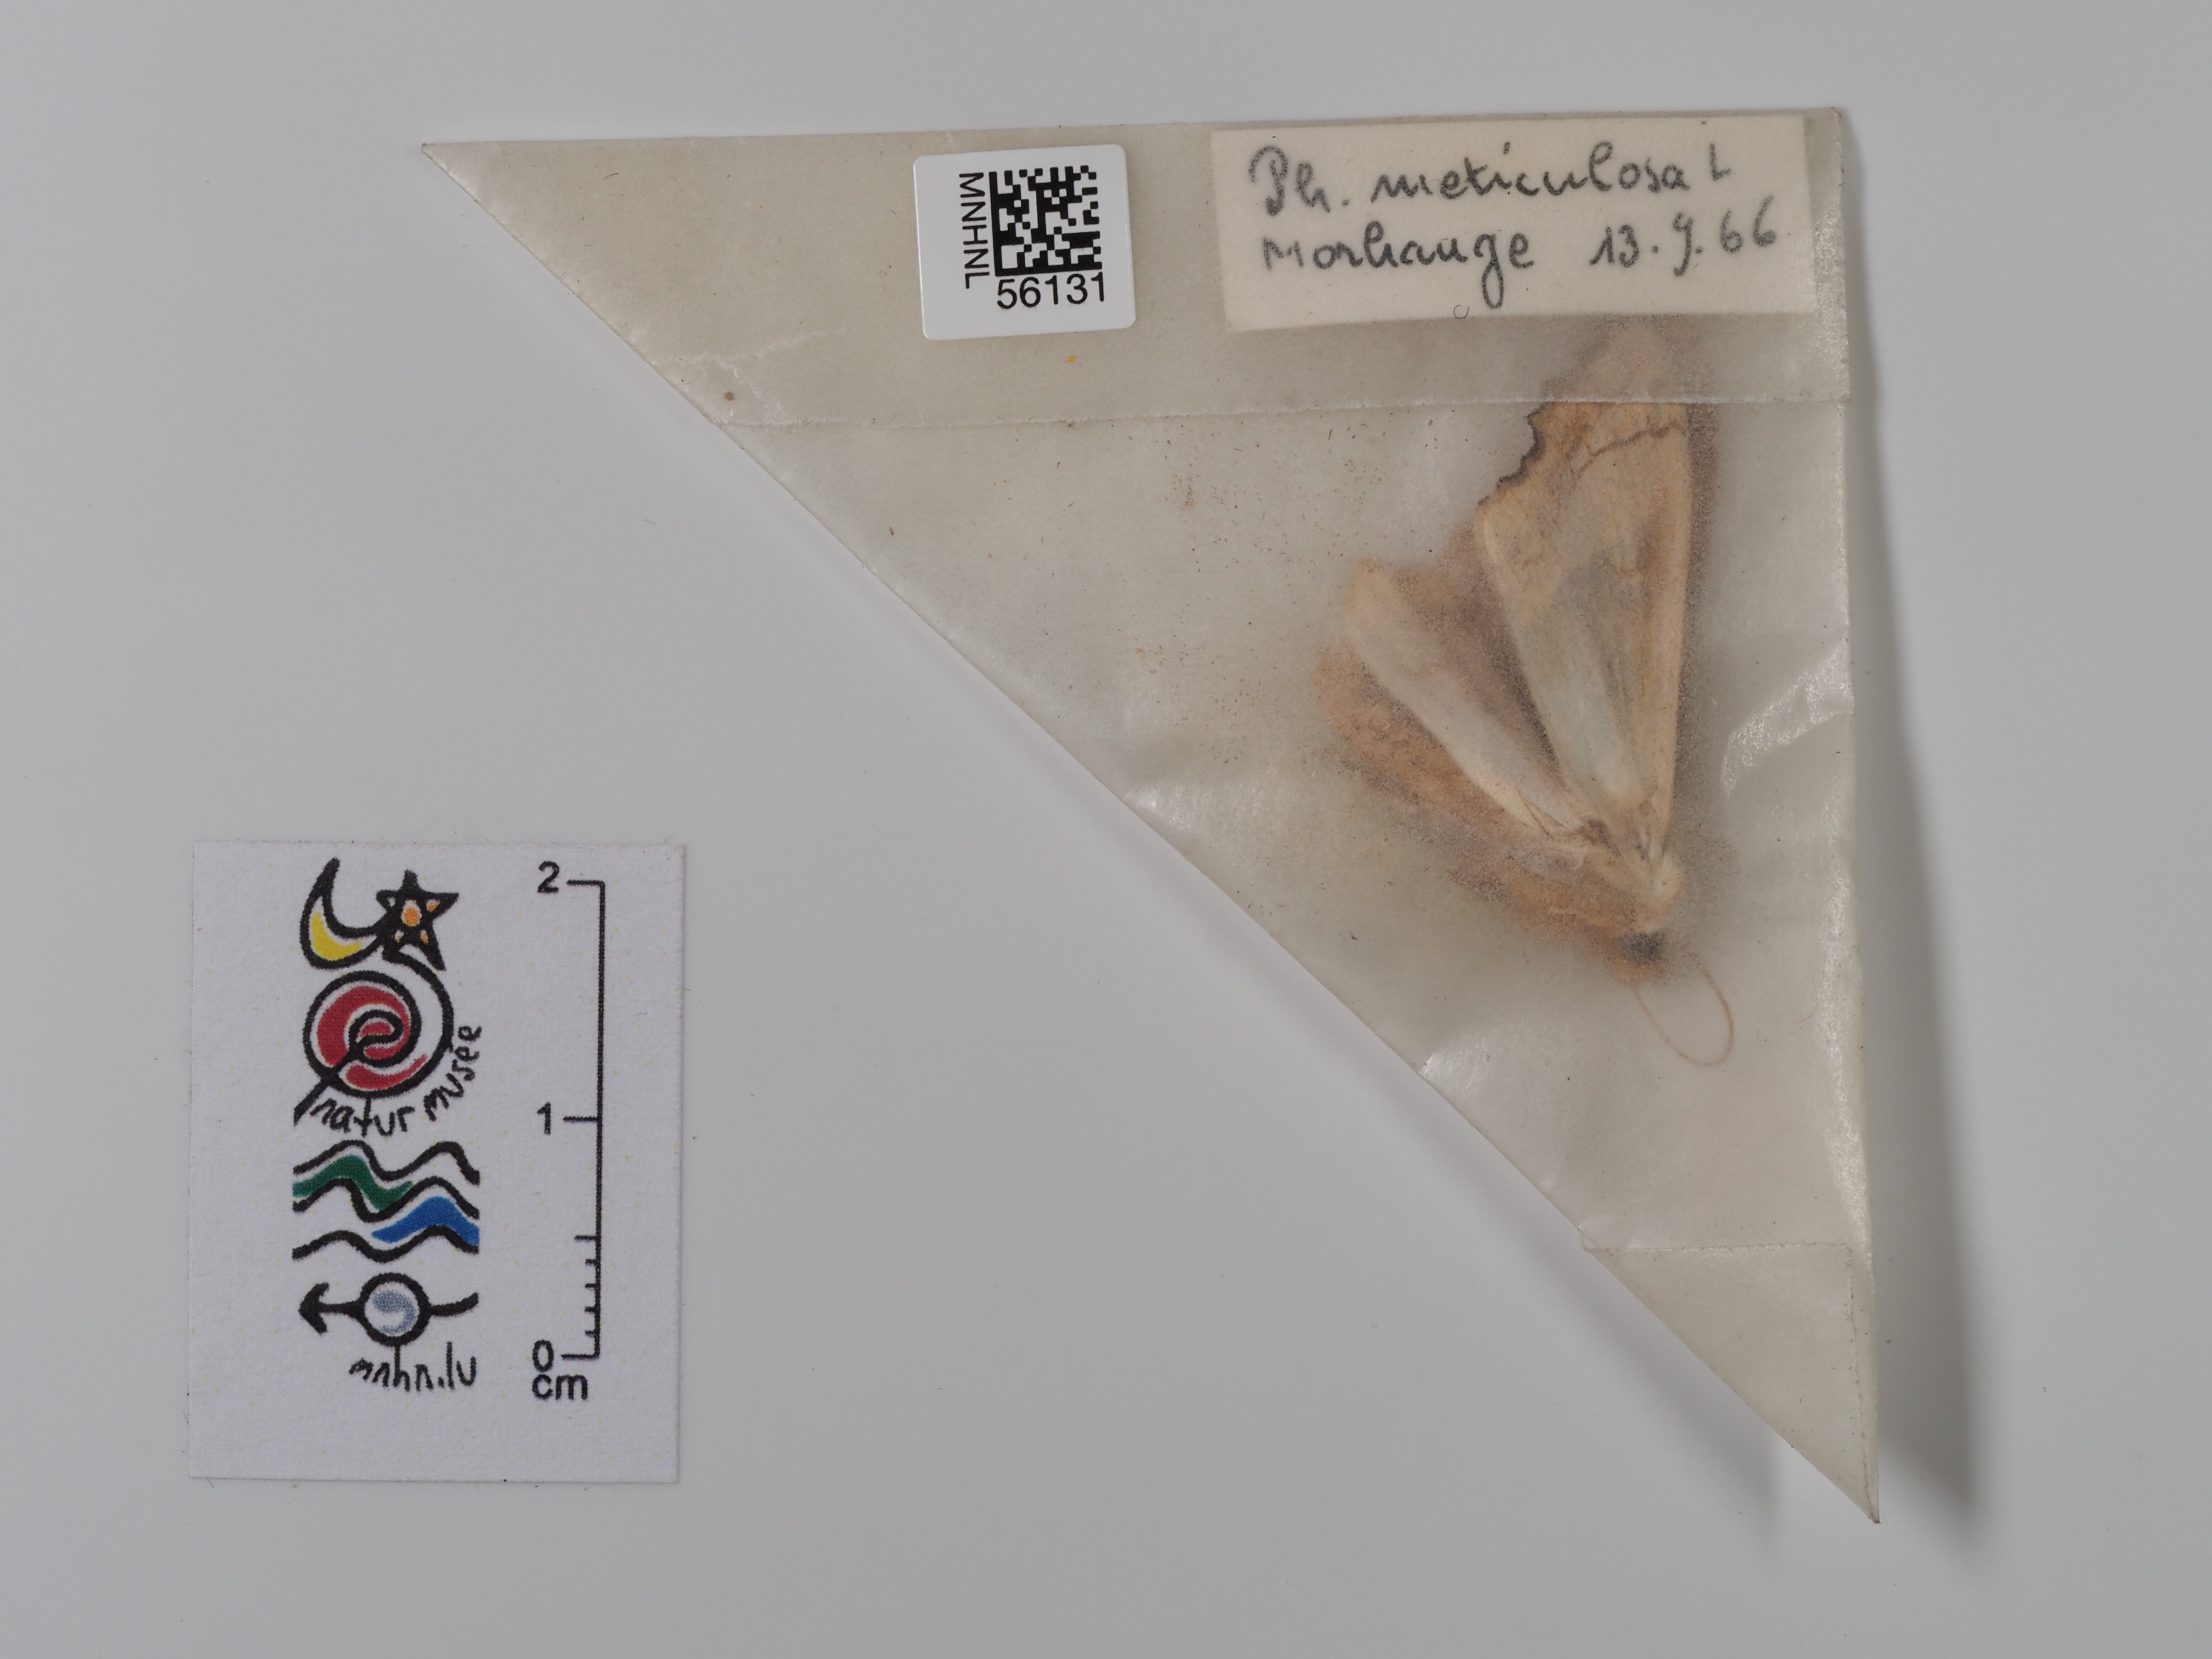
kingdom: Animalia
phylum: Arthropoda
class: Insecta
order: Lepidoptera
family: Noctuidae
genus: Phlogophora
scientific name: Phlogophora meticulosa
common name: Angle shades
